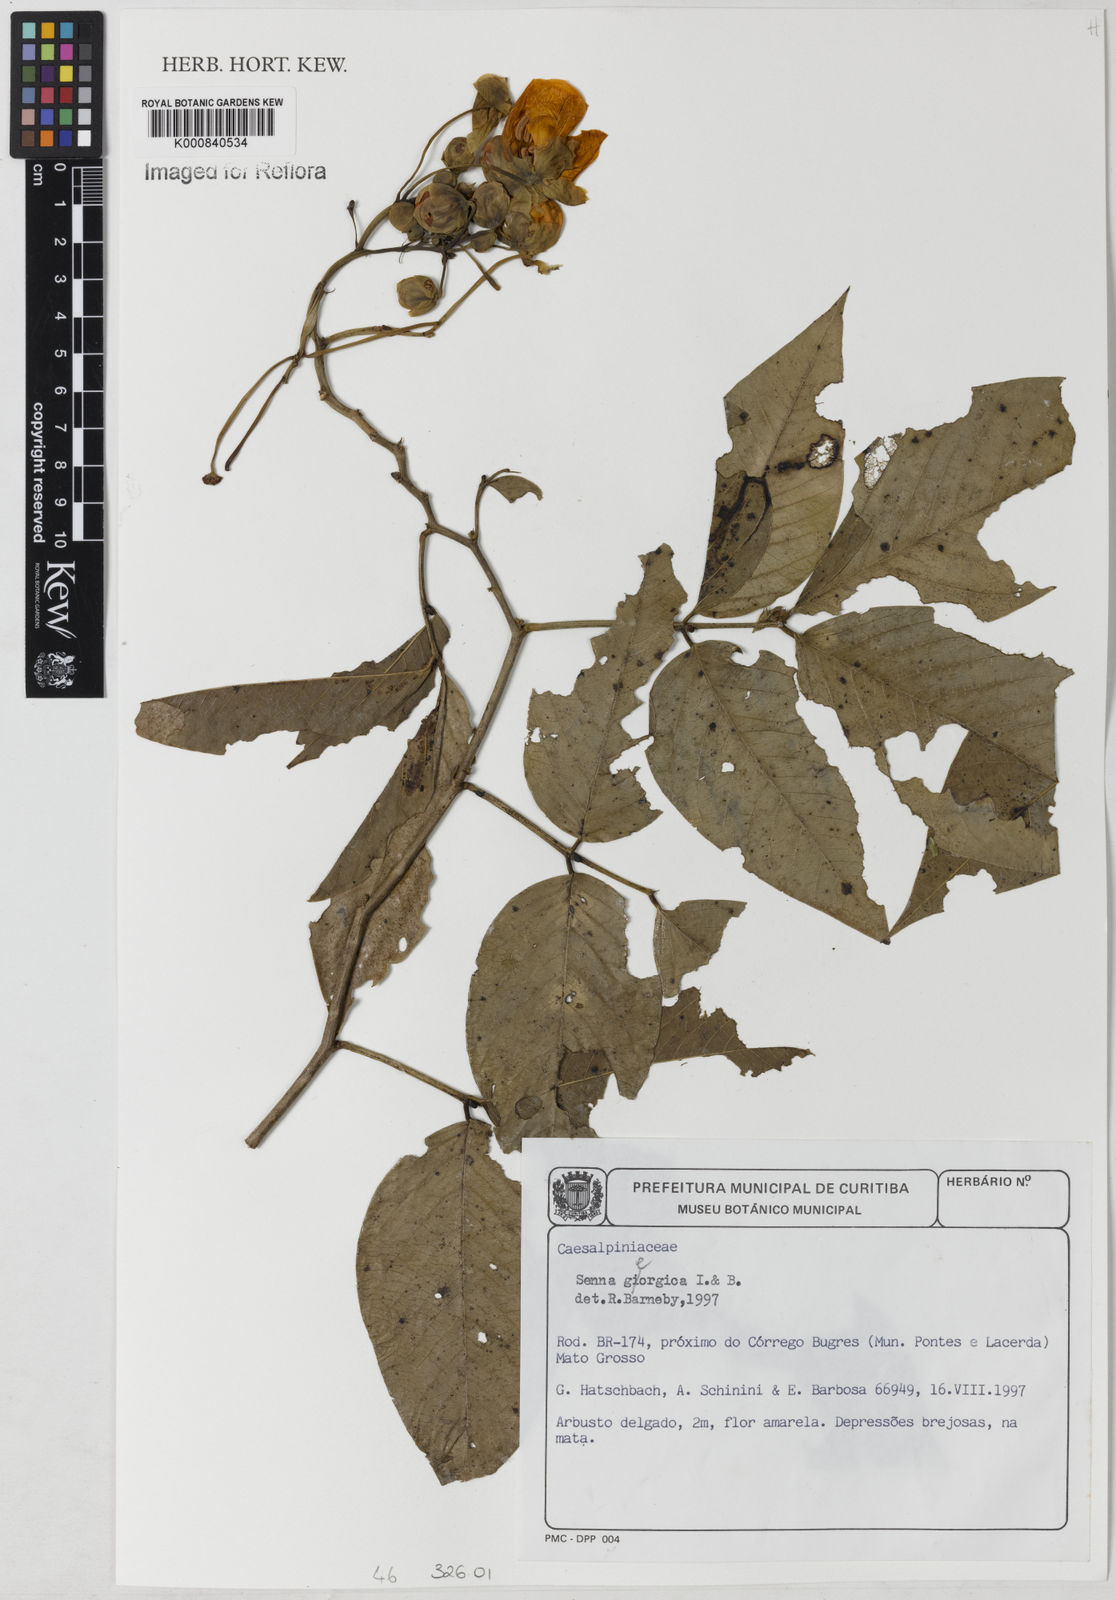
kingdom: Plantae
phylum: Tracheophyta
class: Magnoliopsida
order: Fabales
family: Fabaceae
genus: Senna
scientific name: Senna georgica
